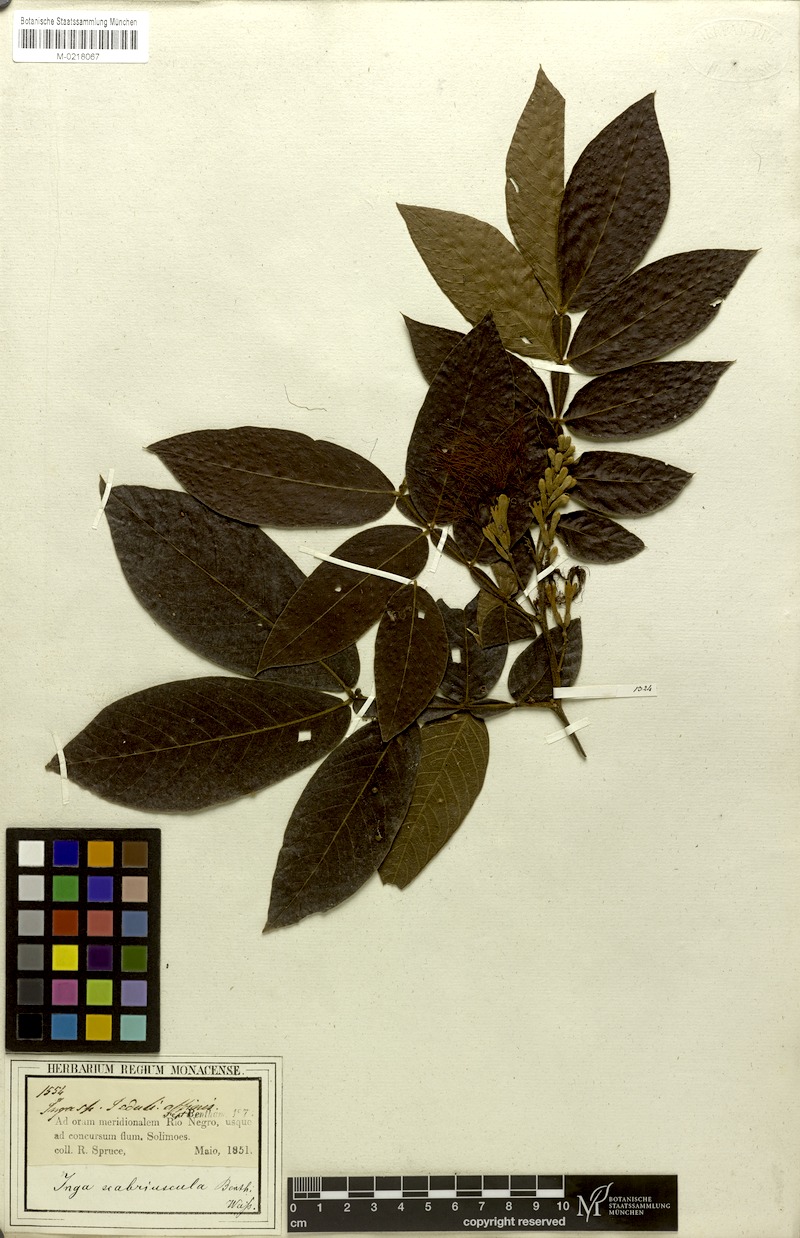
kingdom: Plantae
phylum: Tracheophyta
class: Magnoliopsida
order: Fabales
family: Fabaceae
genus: Inga
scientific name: Inga edulis
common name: Ice cream bean
